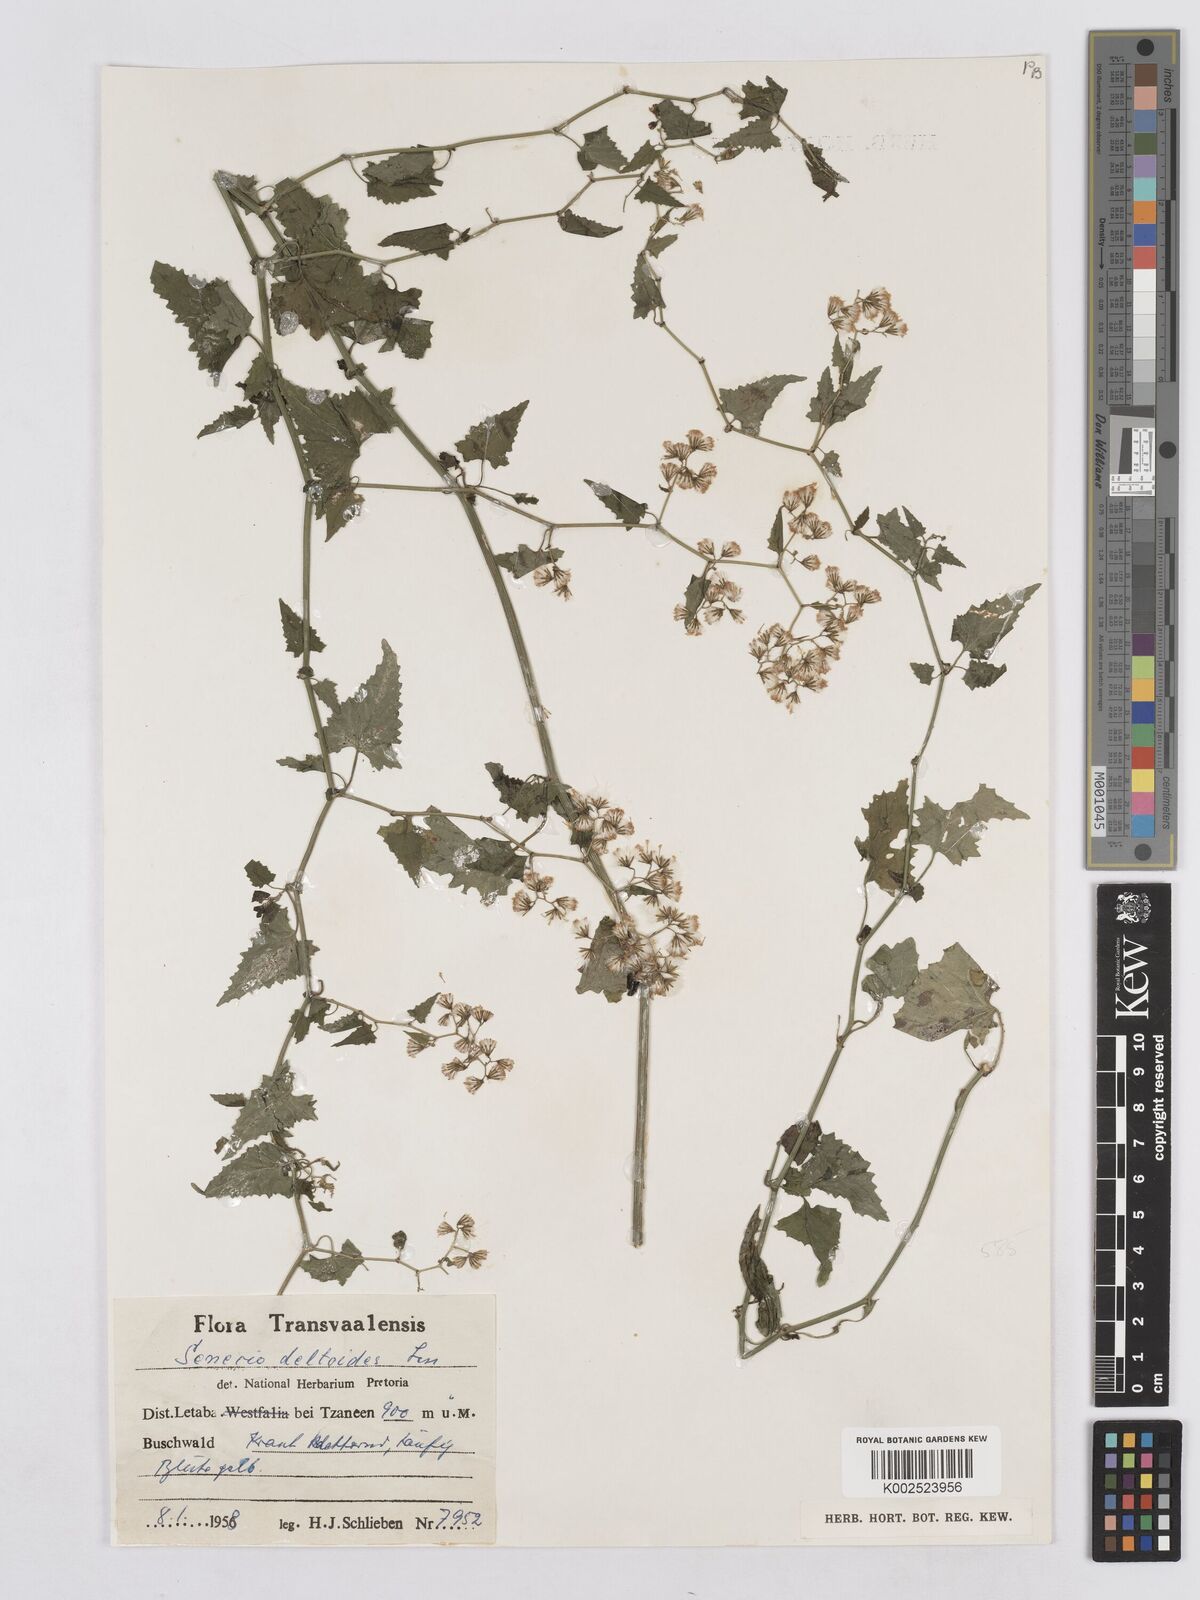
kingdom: Plantae
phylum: Tracheophyta
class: Magnoliopsida
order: Asterales
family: Asteraceae
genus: Senecio
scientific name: Senecio deltoideus
